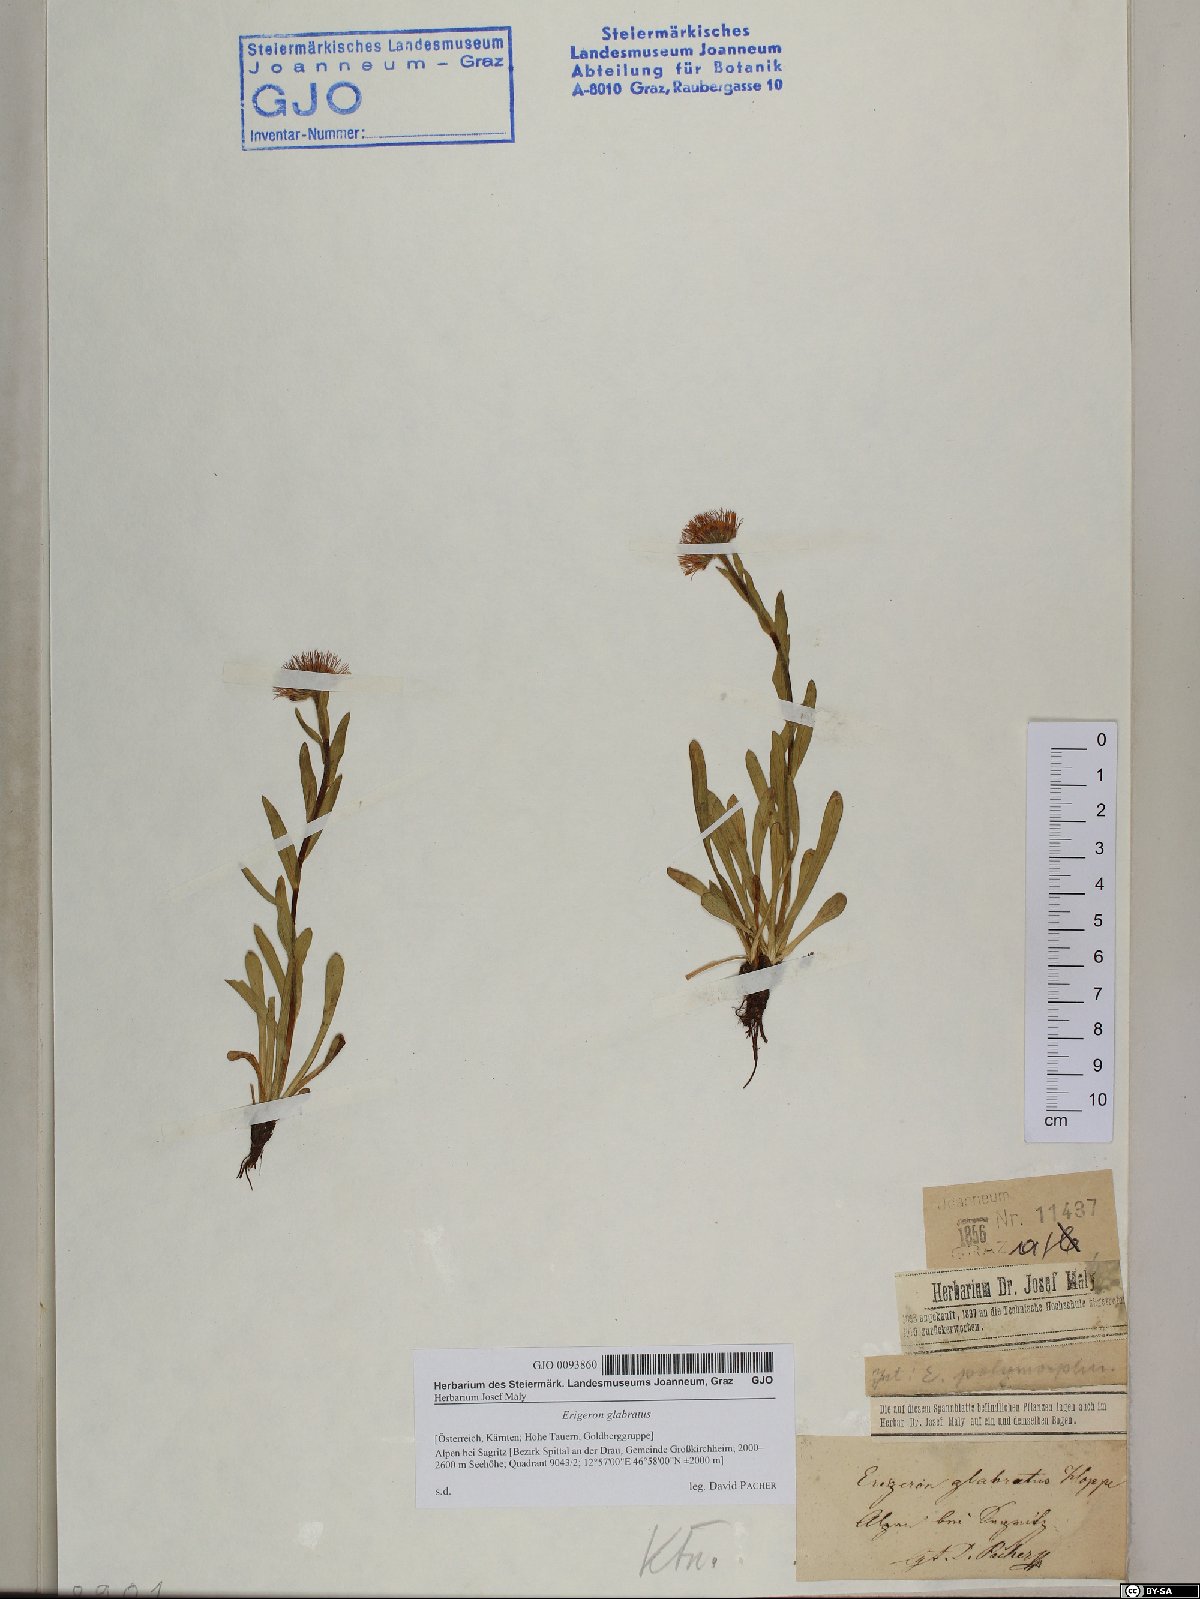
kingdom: Plantae
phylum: Tracheophyta
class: Magnoliopsida
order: Asterales
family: Asteraceae
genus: Erigeron
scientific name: Erigeron glabratus
